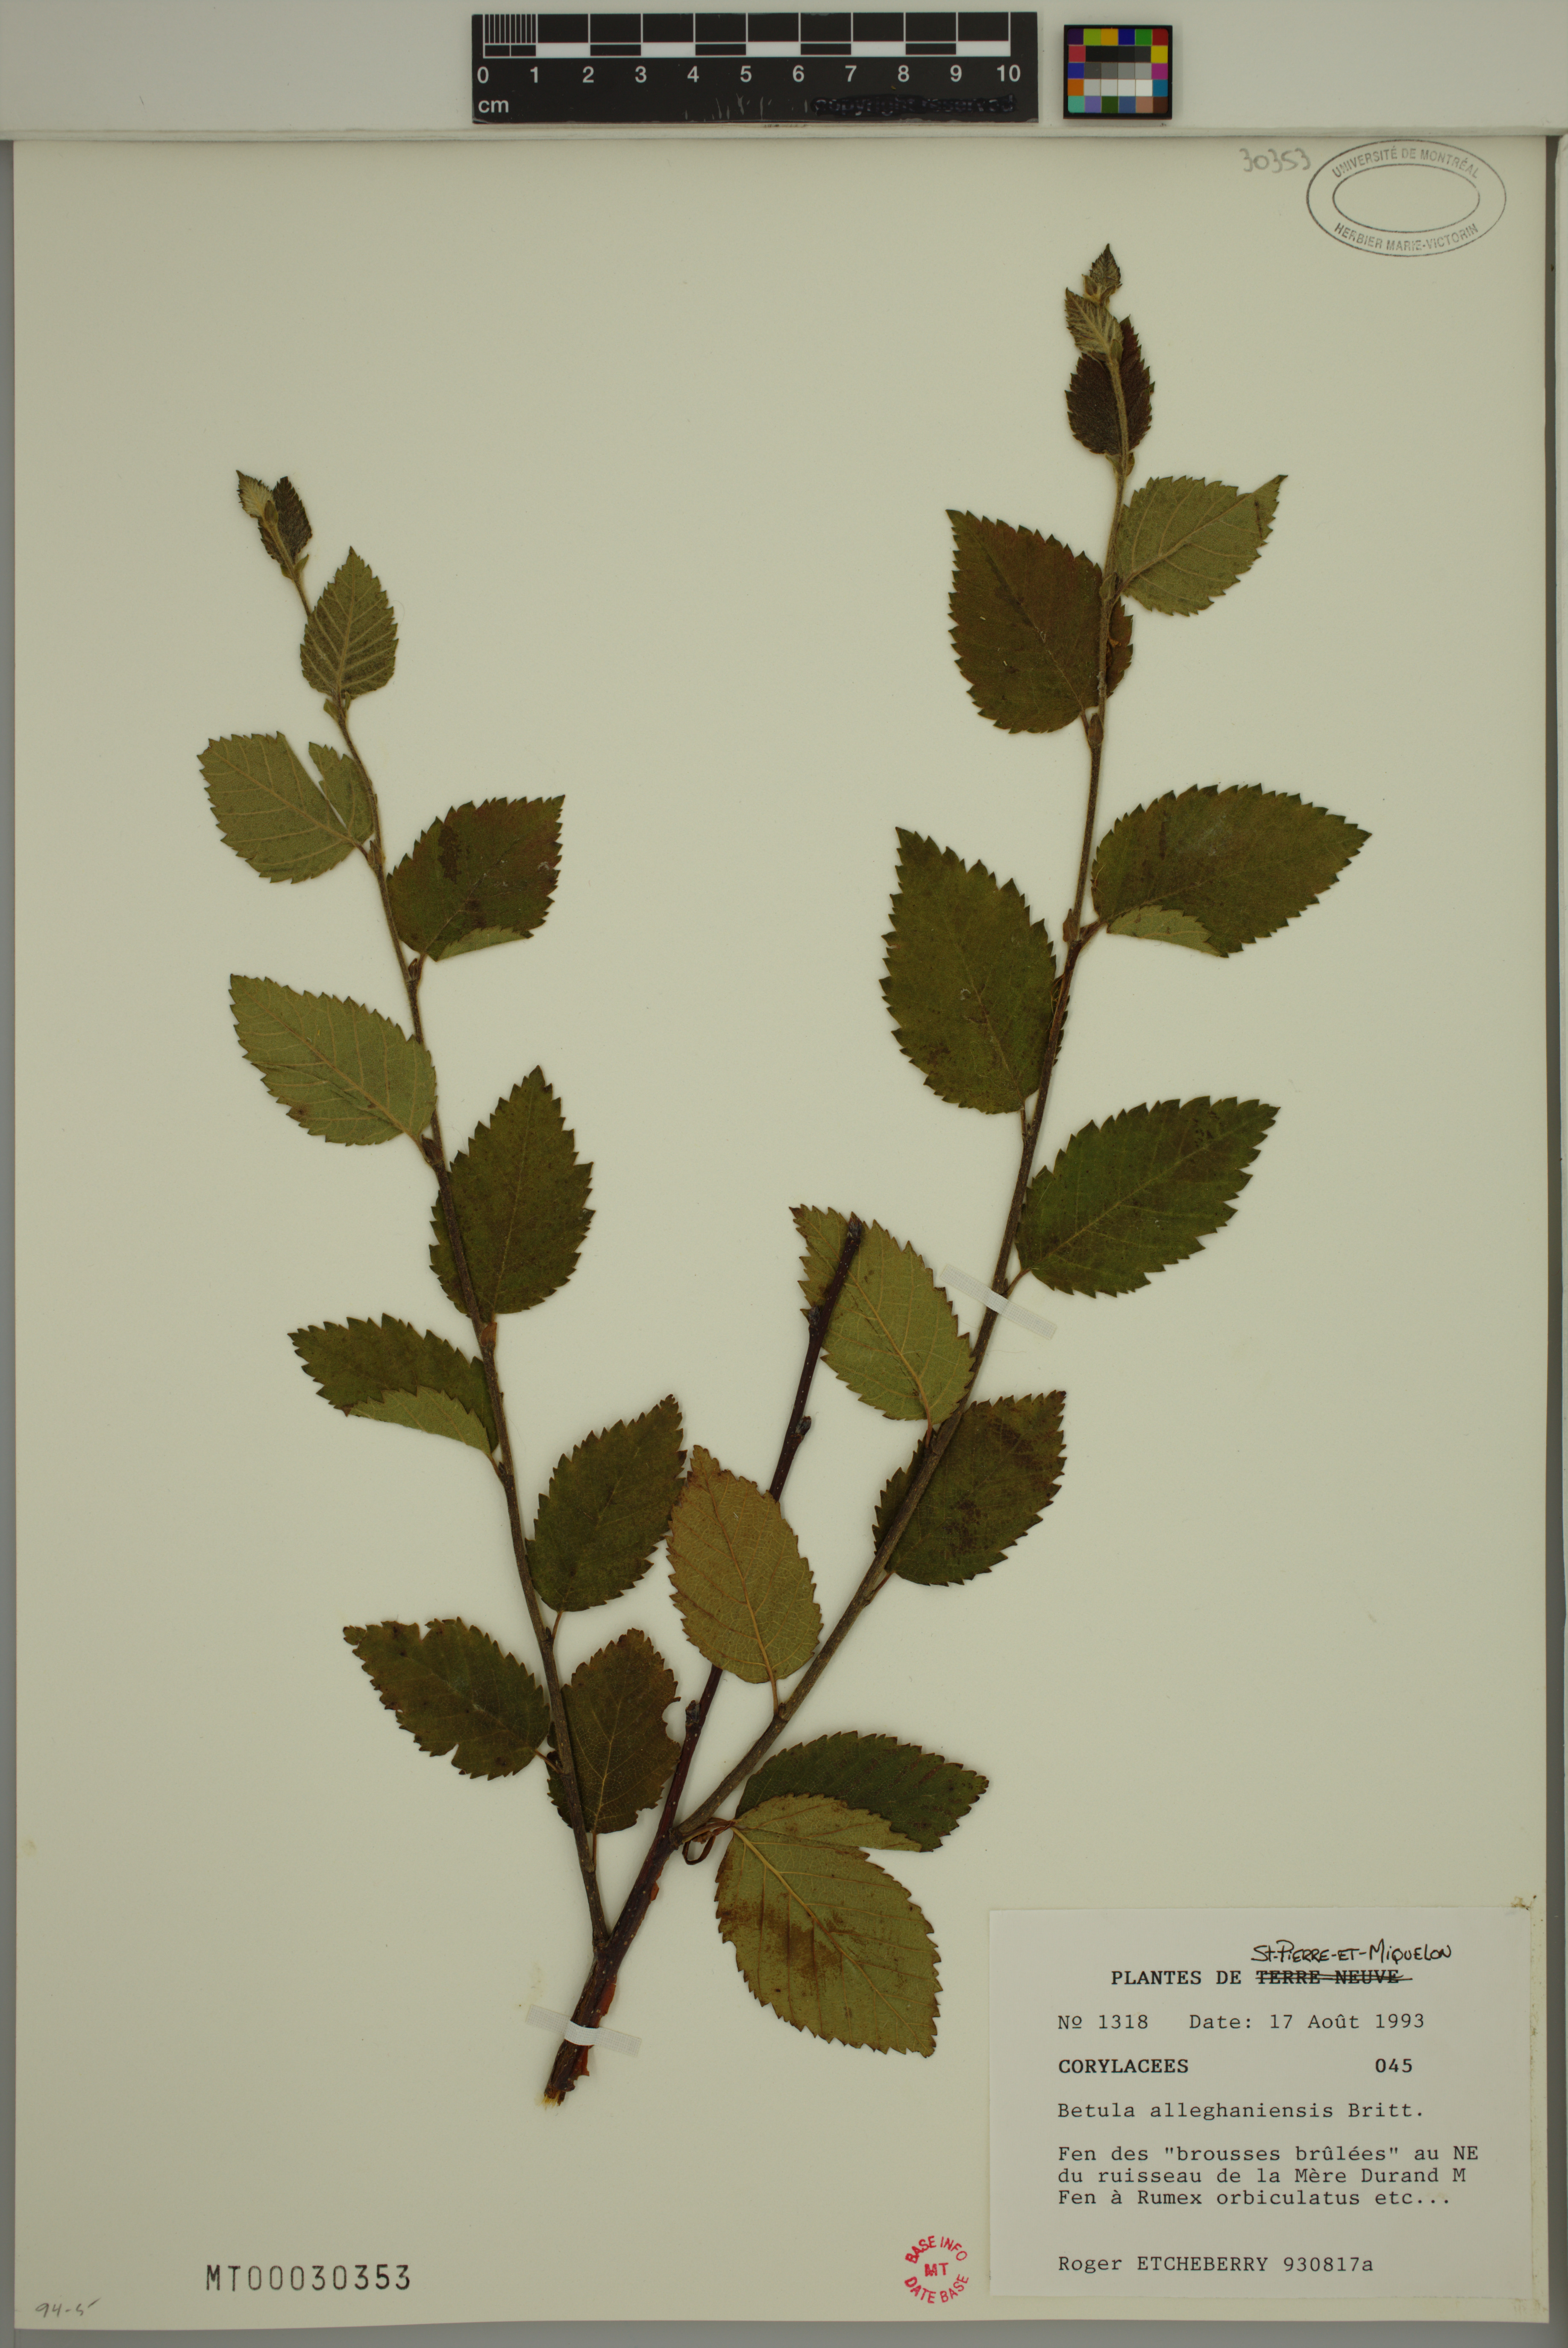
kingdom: Plantae
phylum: Tracheophyta
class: Magnoliopsida
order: Fagales
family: Betulaceae
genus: Betula
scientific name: Betula alleghaniensis
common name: Yellow birch
